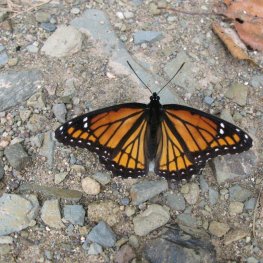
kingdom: Animalia
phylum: Arthropoda
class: Insecta
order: Lepidoptera
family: Nymphalidae
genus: Limenitis
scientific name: Limenitis archippus
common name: Viceroy
